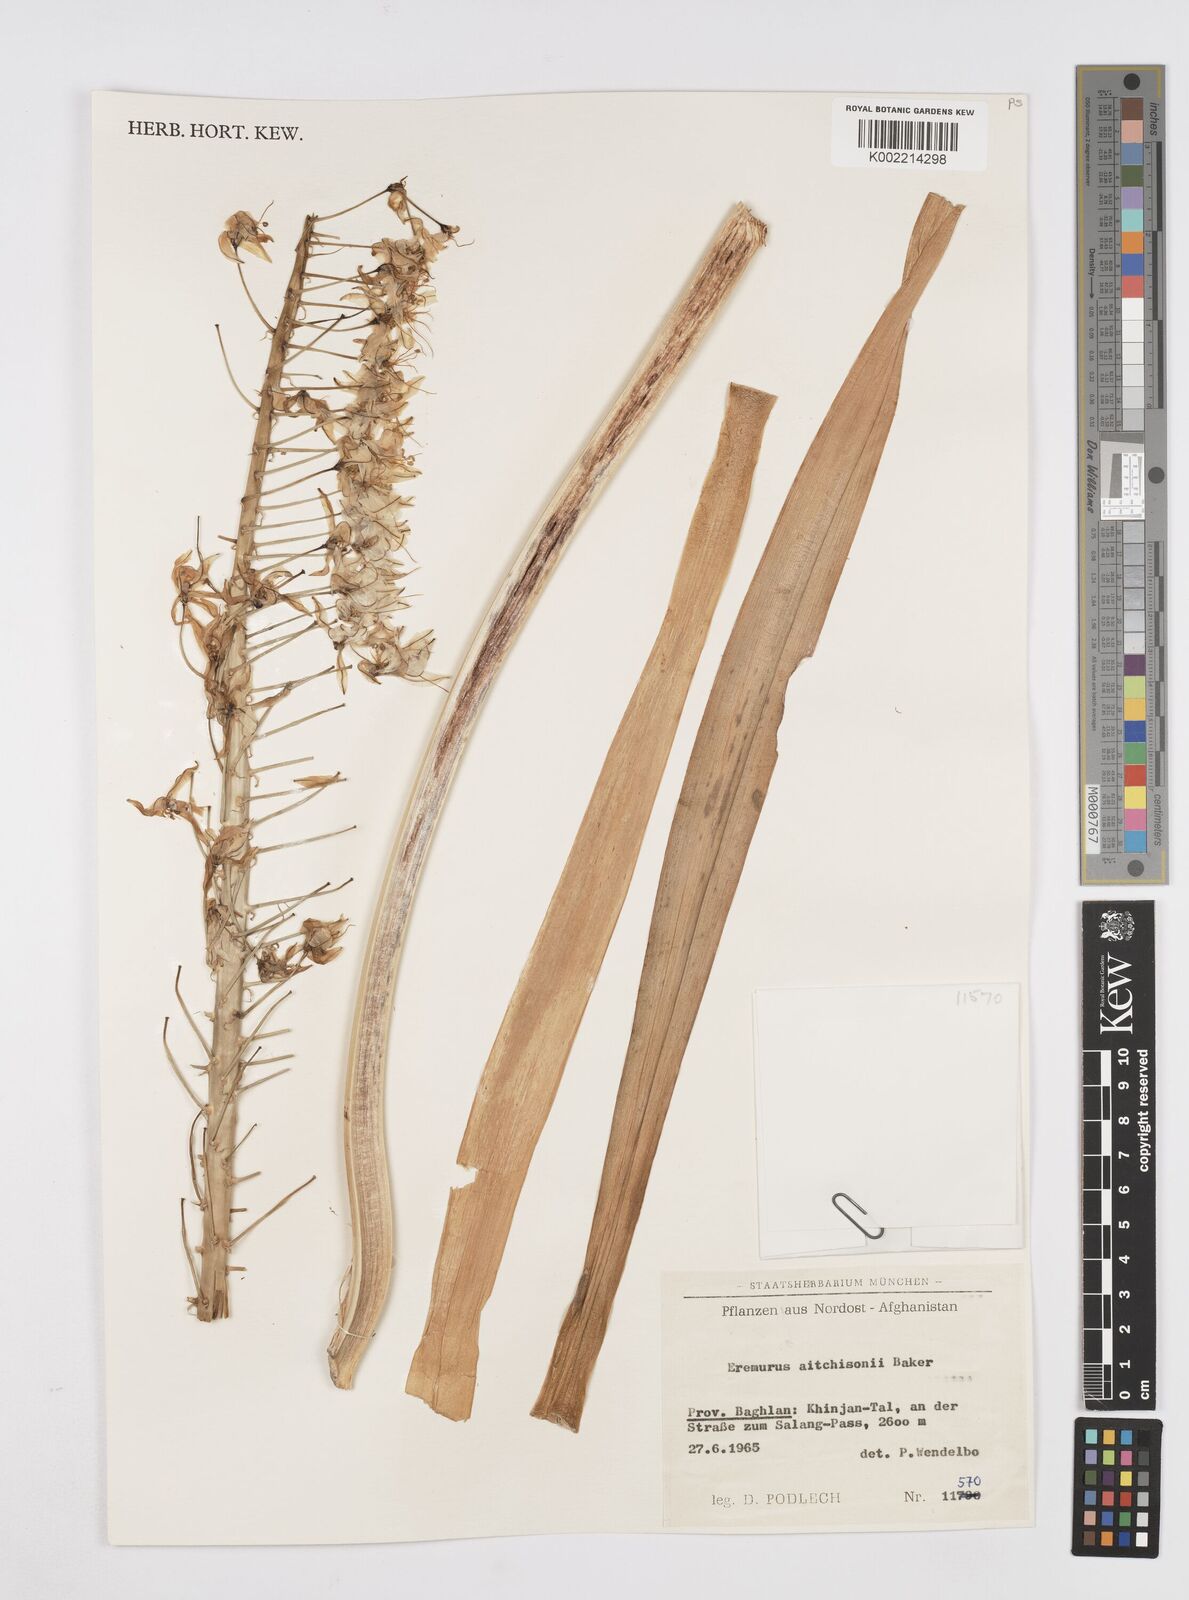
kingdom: Plantae
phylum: Tracheophyta
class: Liliopsida
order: Asparagales
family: Asphodelaceae
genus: Eremurus
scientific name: Eremurus aitchisonii
